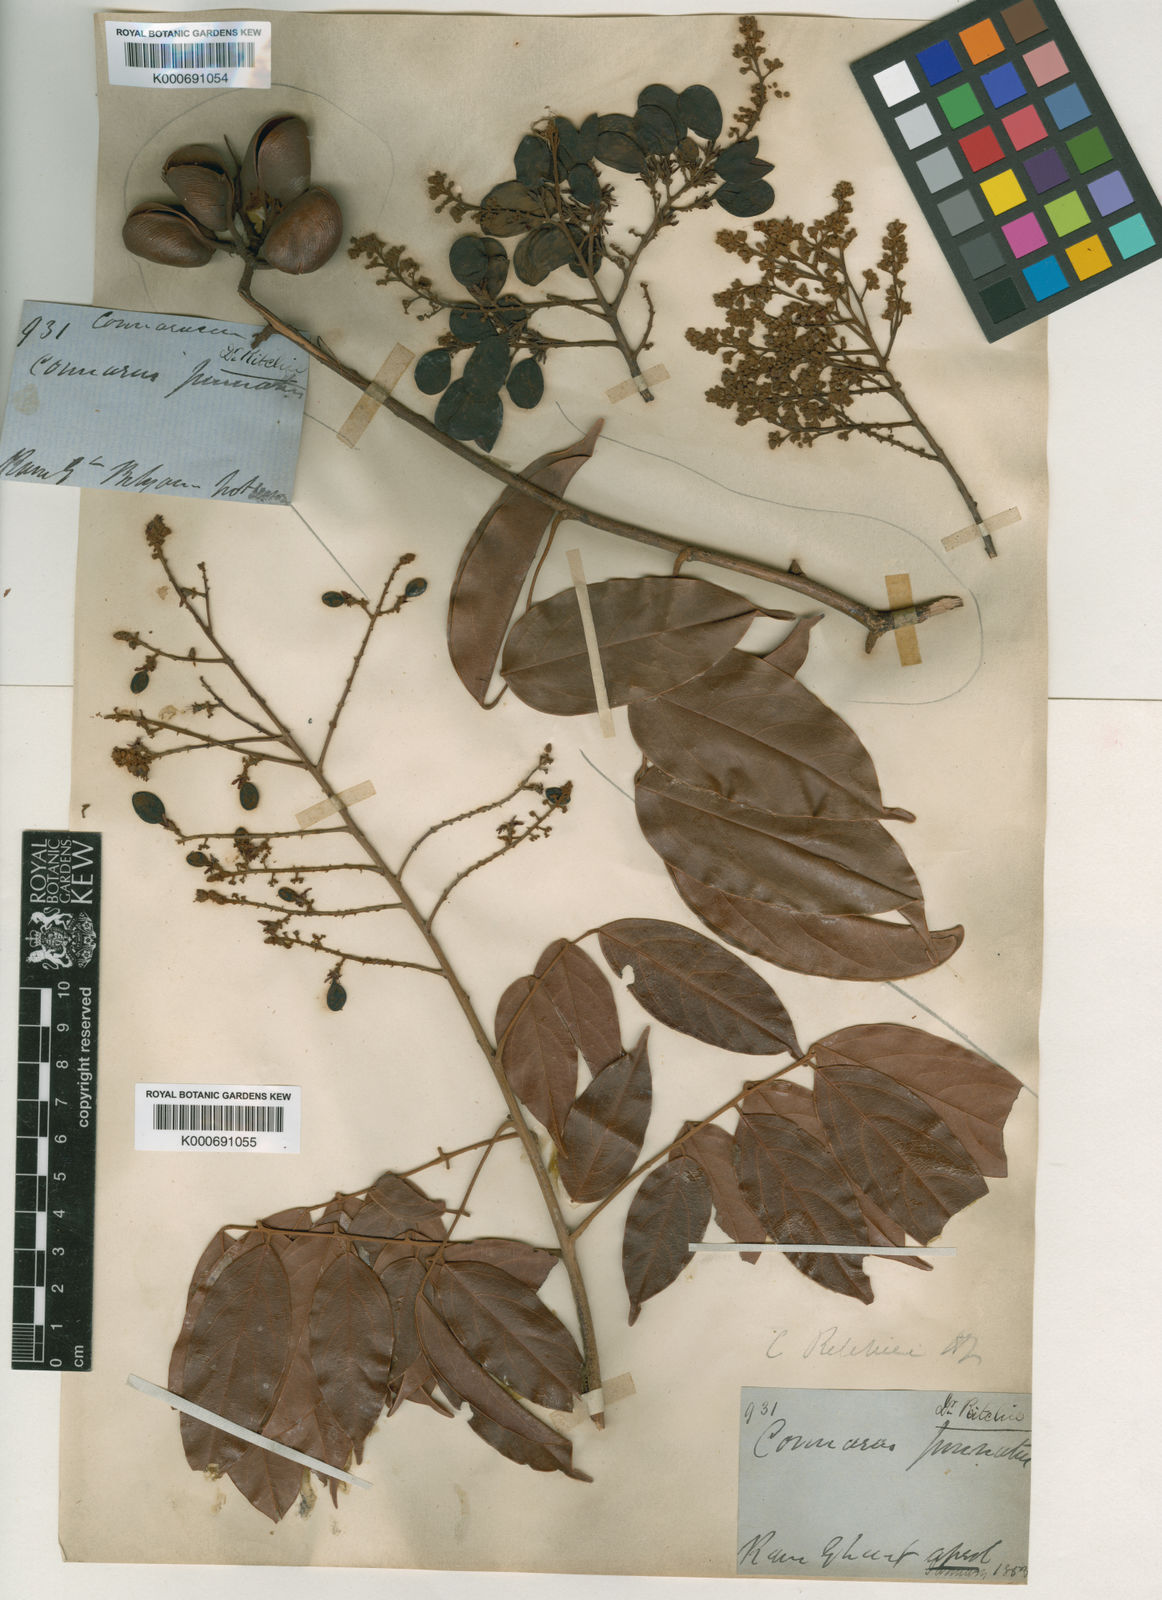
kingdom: Plantae
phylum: Tracheophyta
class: Magnoliopsida
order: Oxalidales
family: Connaraceae
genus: Connarus
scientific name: Connarus wightii
